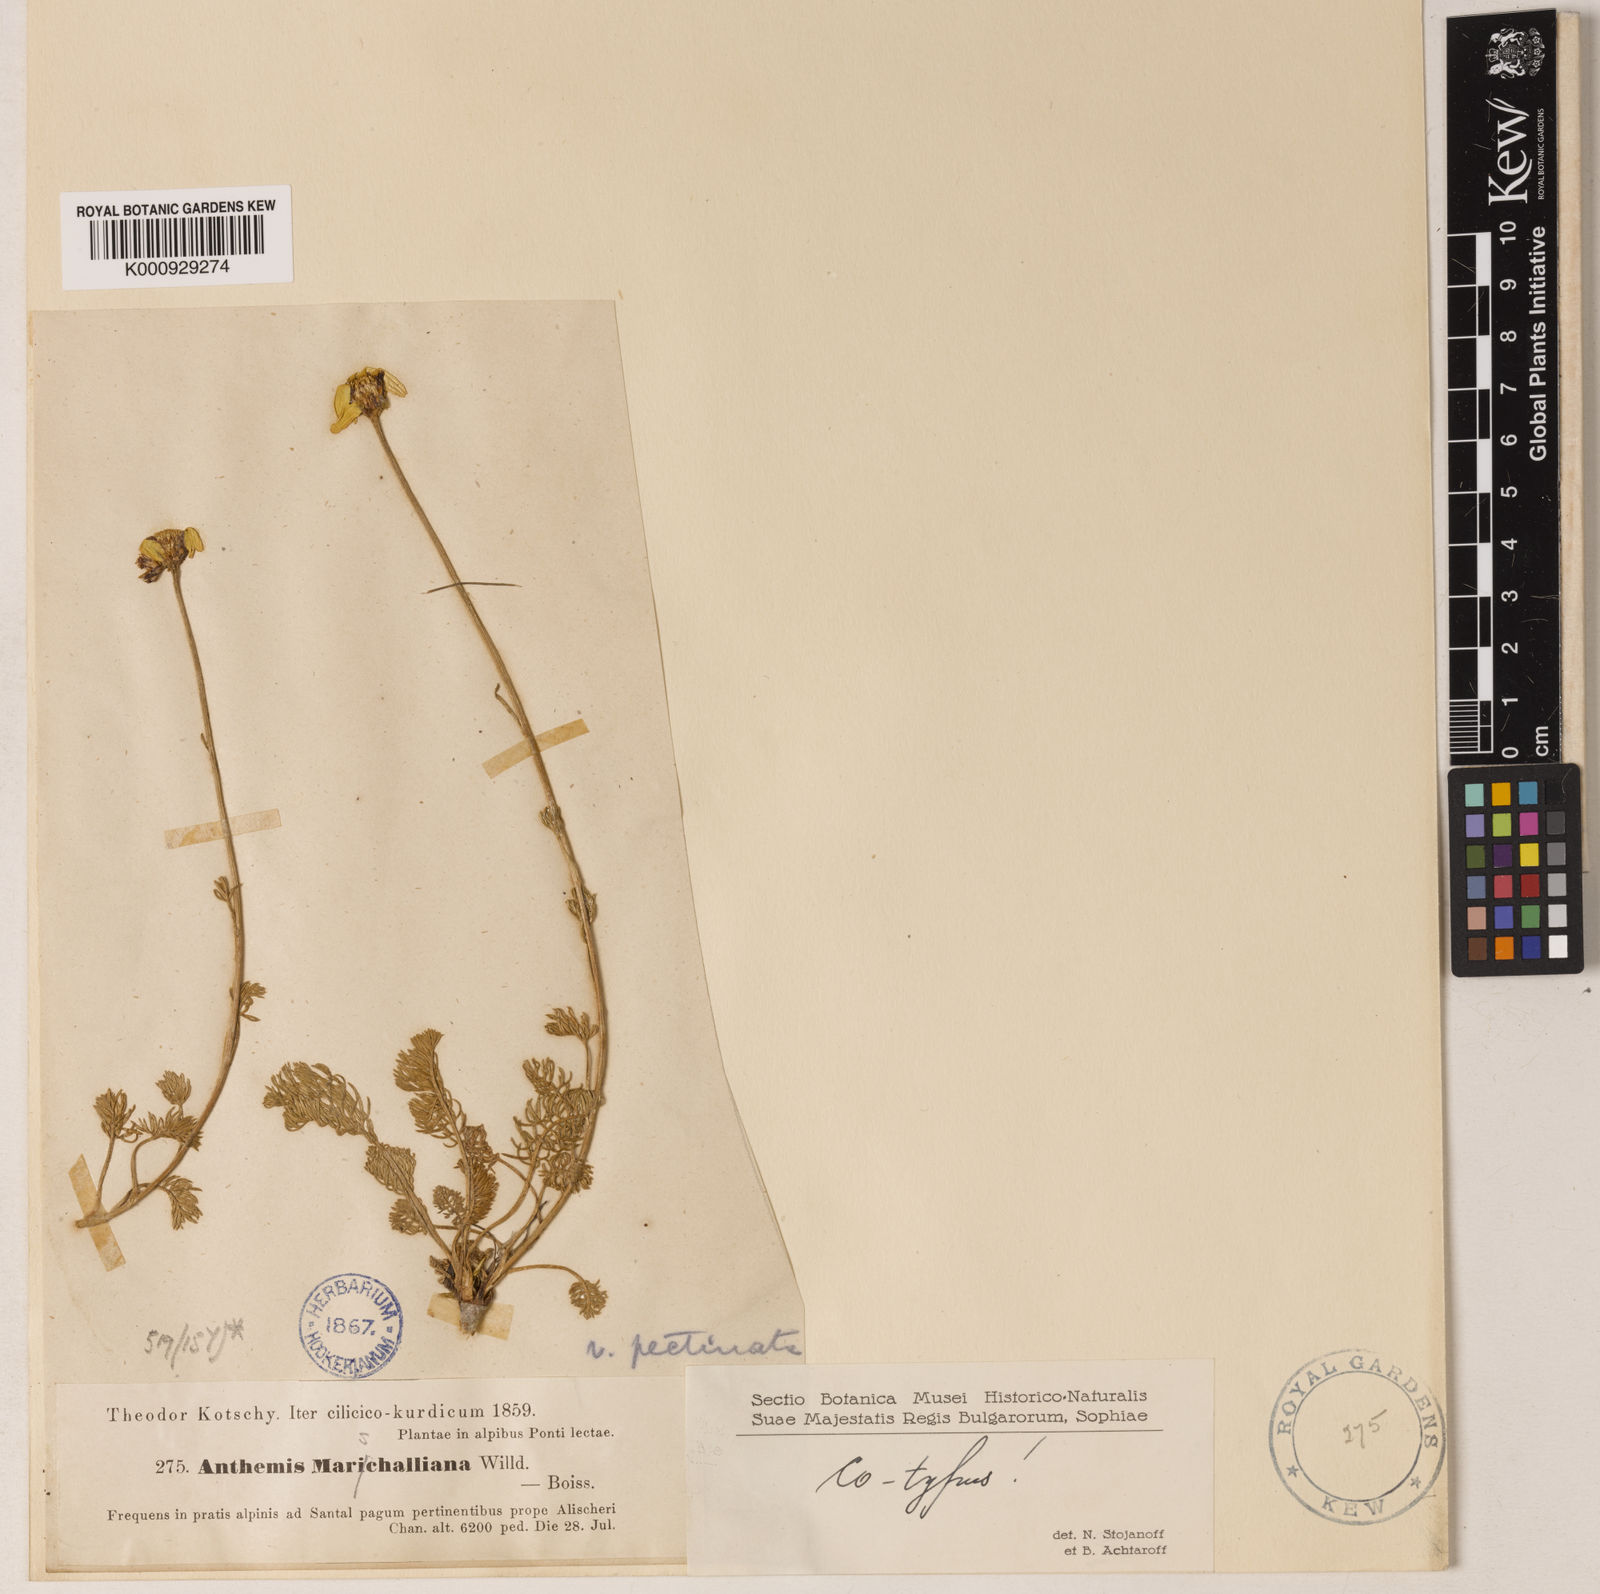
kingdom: Plantae
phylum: Tracheophyta
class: Magnoliopsida
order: Asterales
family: Asteraceae
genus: Archanthemis
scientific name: Archanthemis marschalliana
